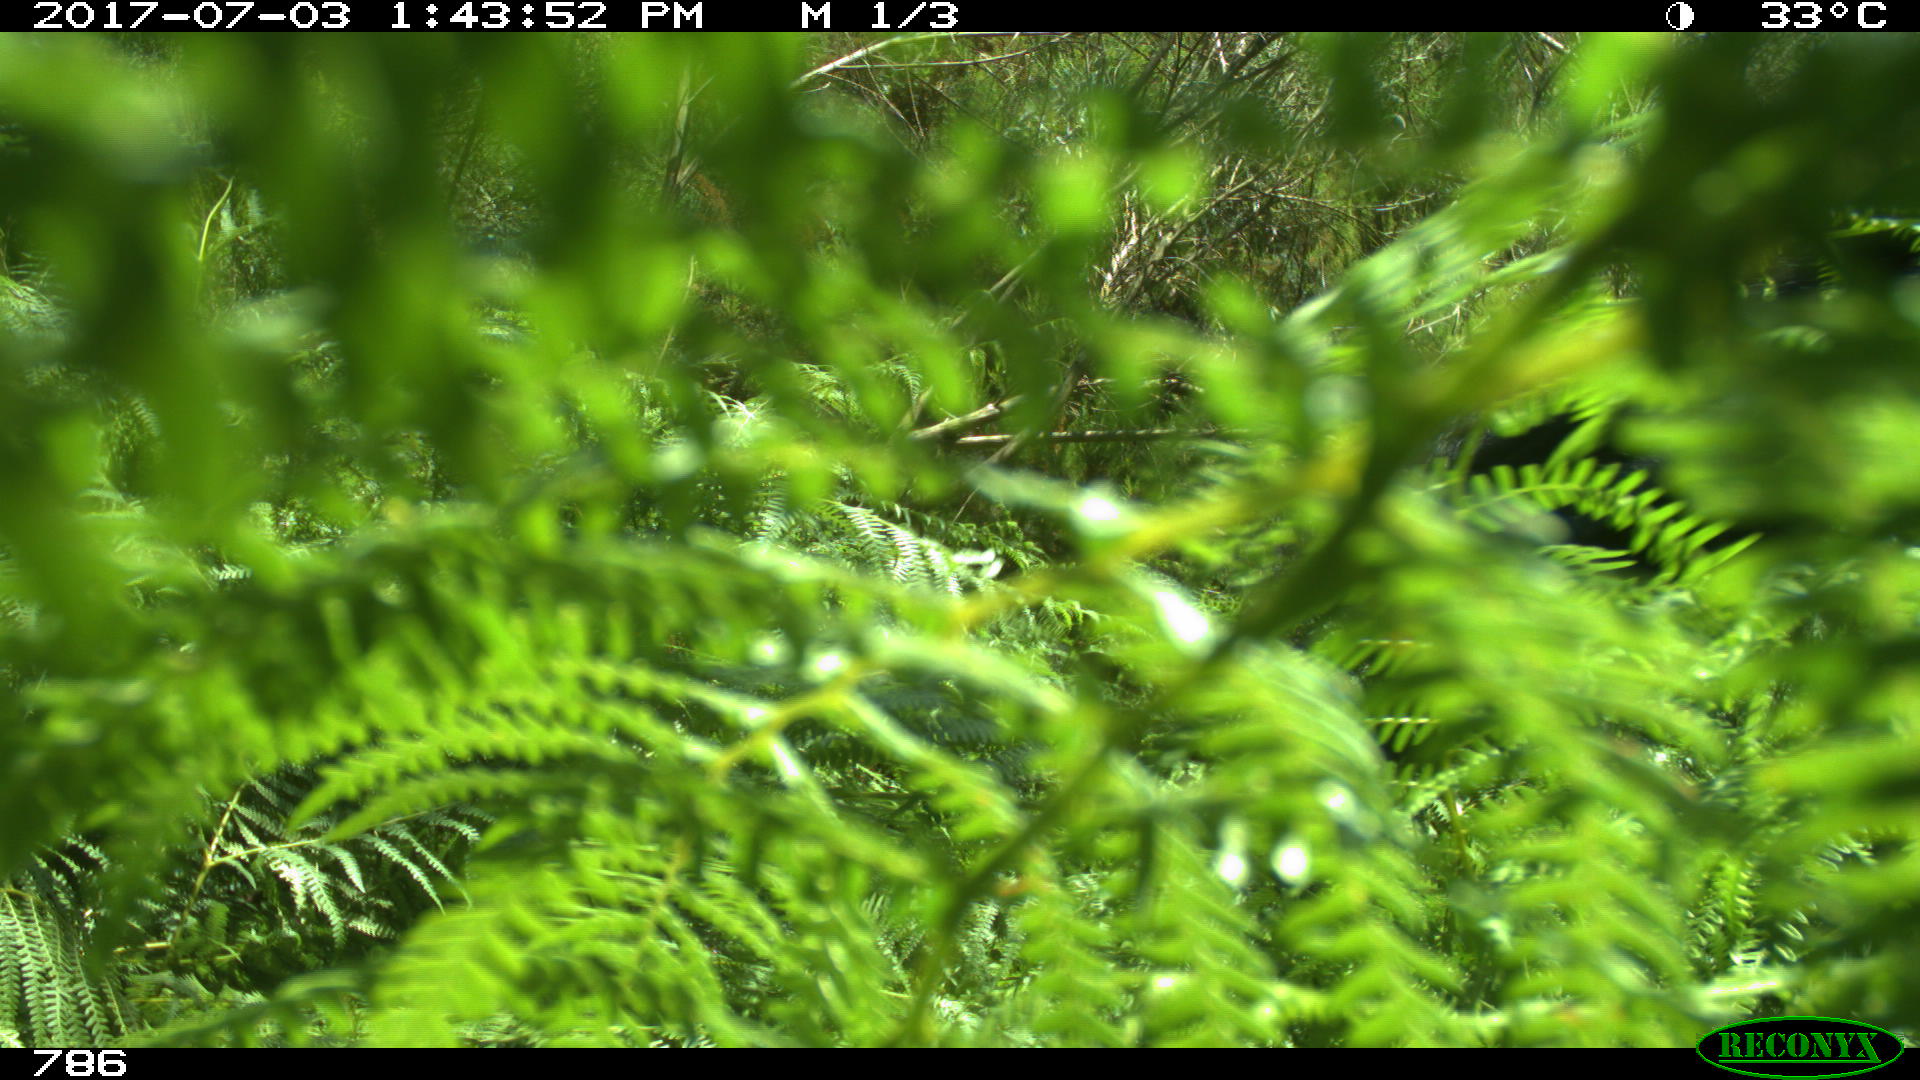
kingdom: Animalia
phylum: Chordata
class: Mammalia
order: Perissodactyla
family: Equidae
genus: Equus
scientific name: Equus caballus
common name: Horse
